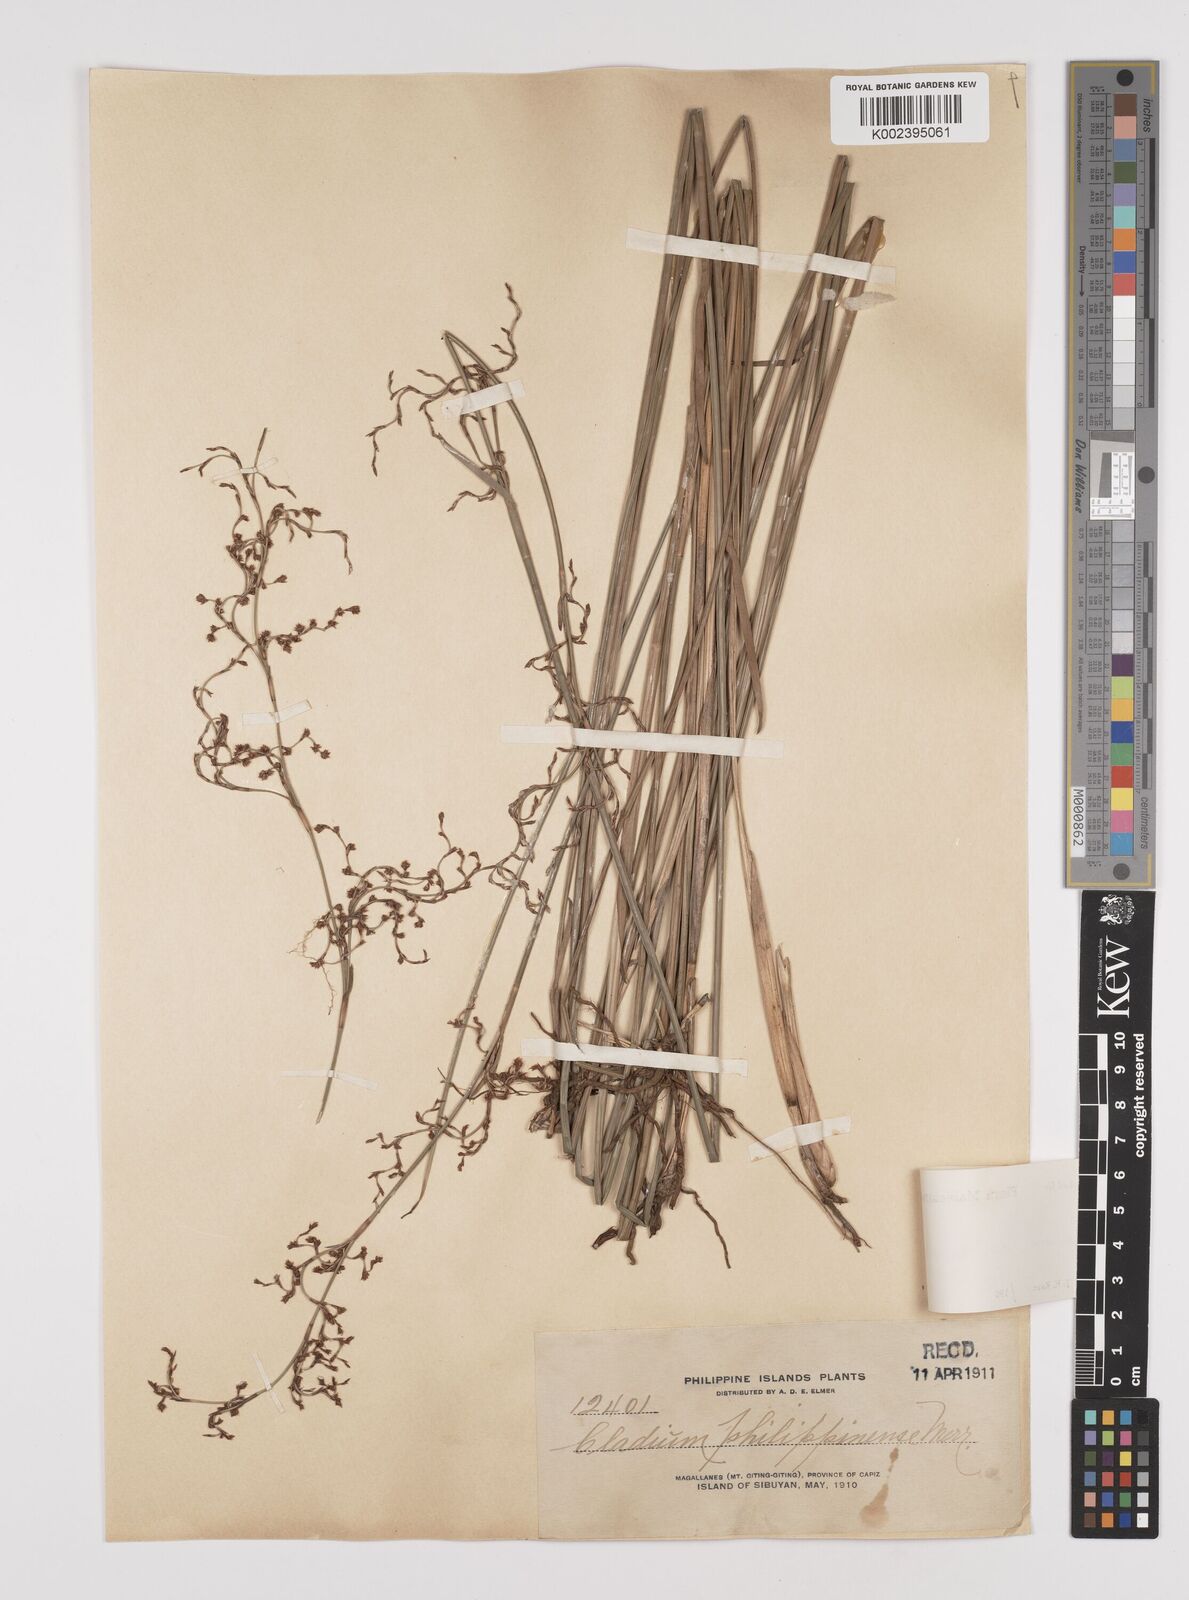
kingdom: Plantae
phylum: Tracheophyta
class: Liliopsida
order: Poales
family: Cyperaceae
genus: Machaerina
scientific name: Machaerina disticha
